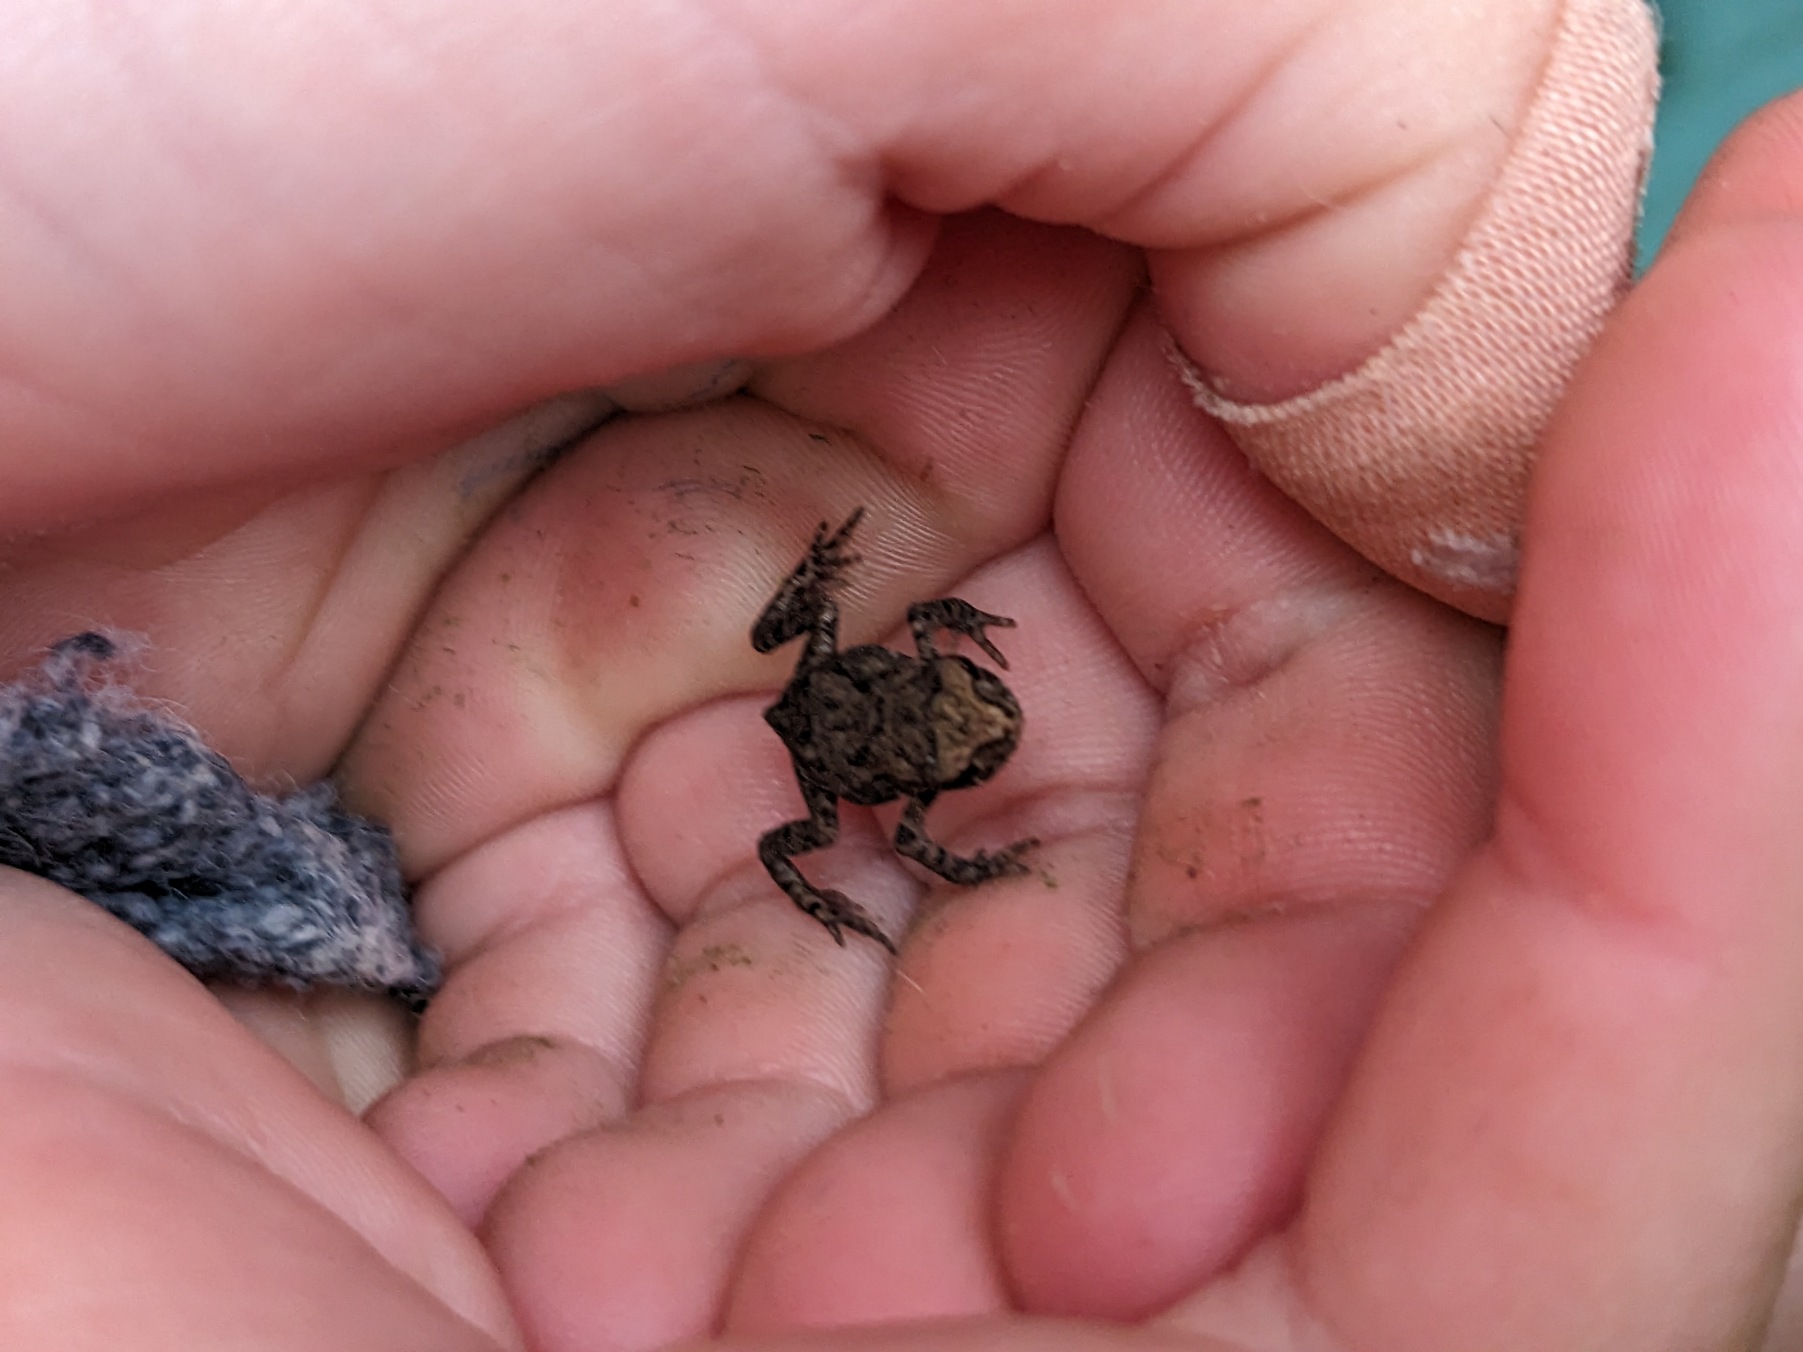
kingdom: Animalia
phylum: Chordata
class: Amphibia
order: Anura
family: Bufonidae
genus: Bufo
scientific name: Bufo bufo
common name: Skrubtudse
